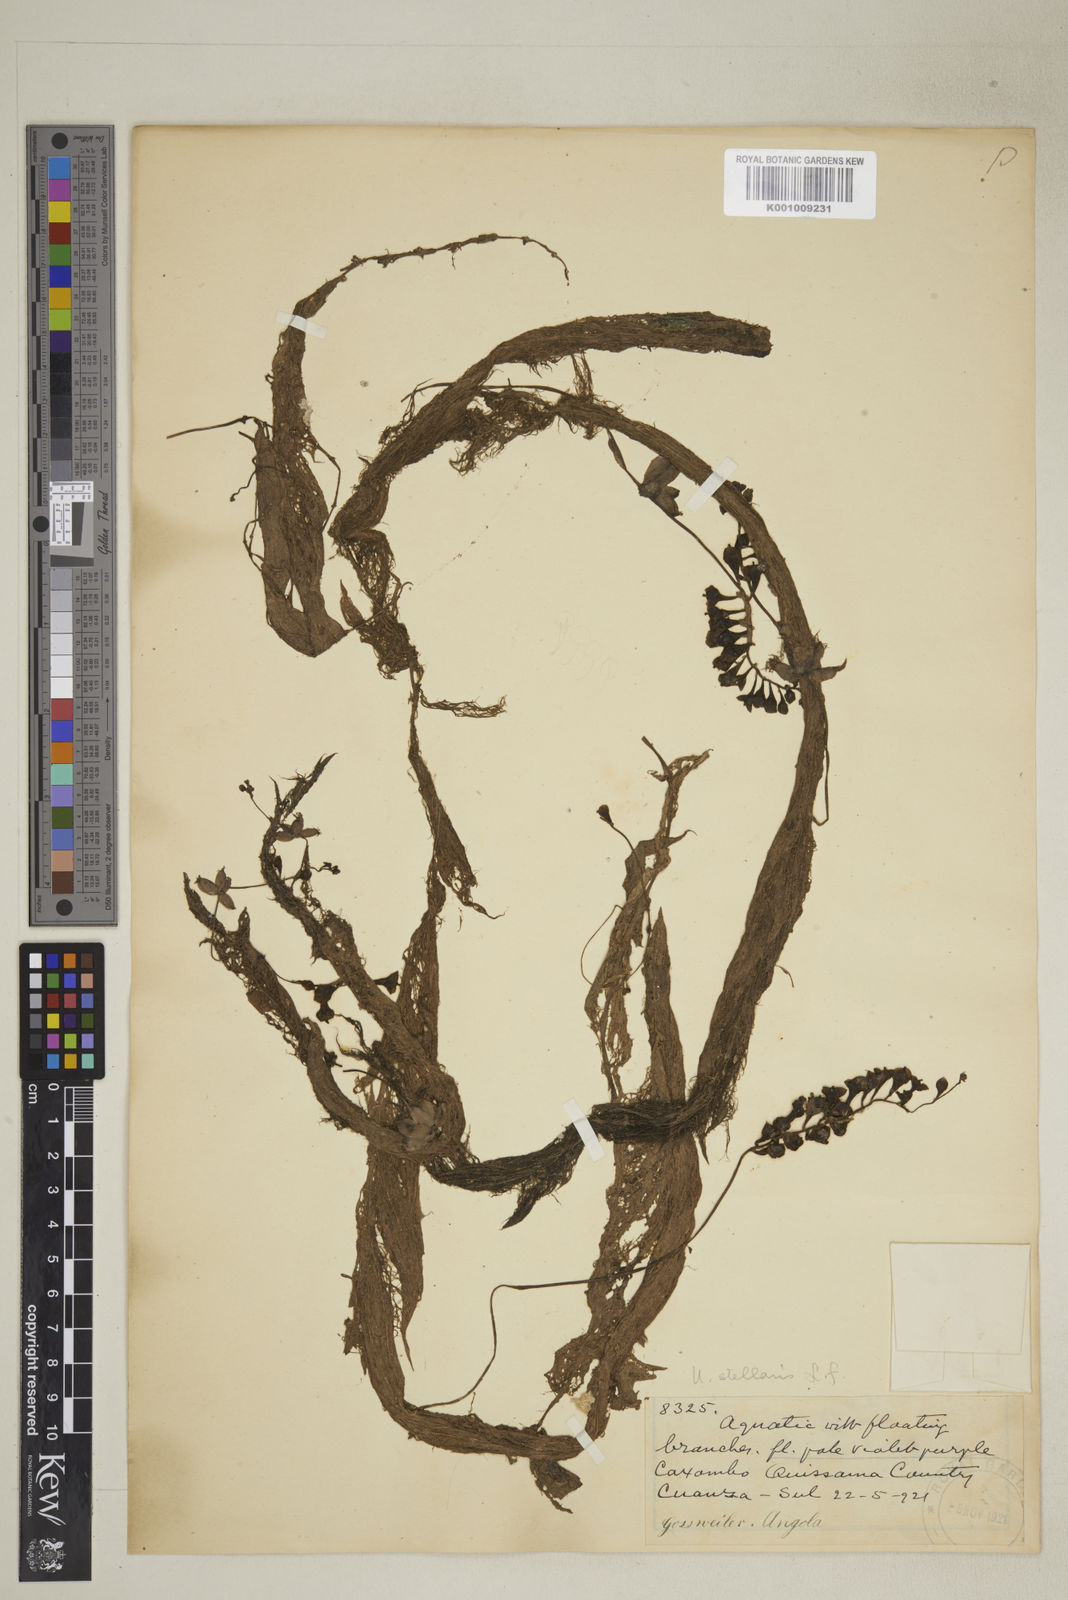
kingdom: Plantae
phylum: Tracheophyta
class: Magnoliopsida
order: Lamiales
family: Lentibulariaceae
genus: Utricularia
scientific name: Utricularia inflexa
